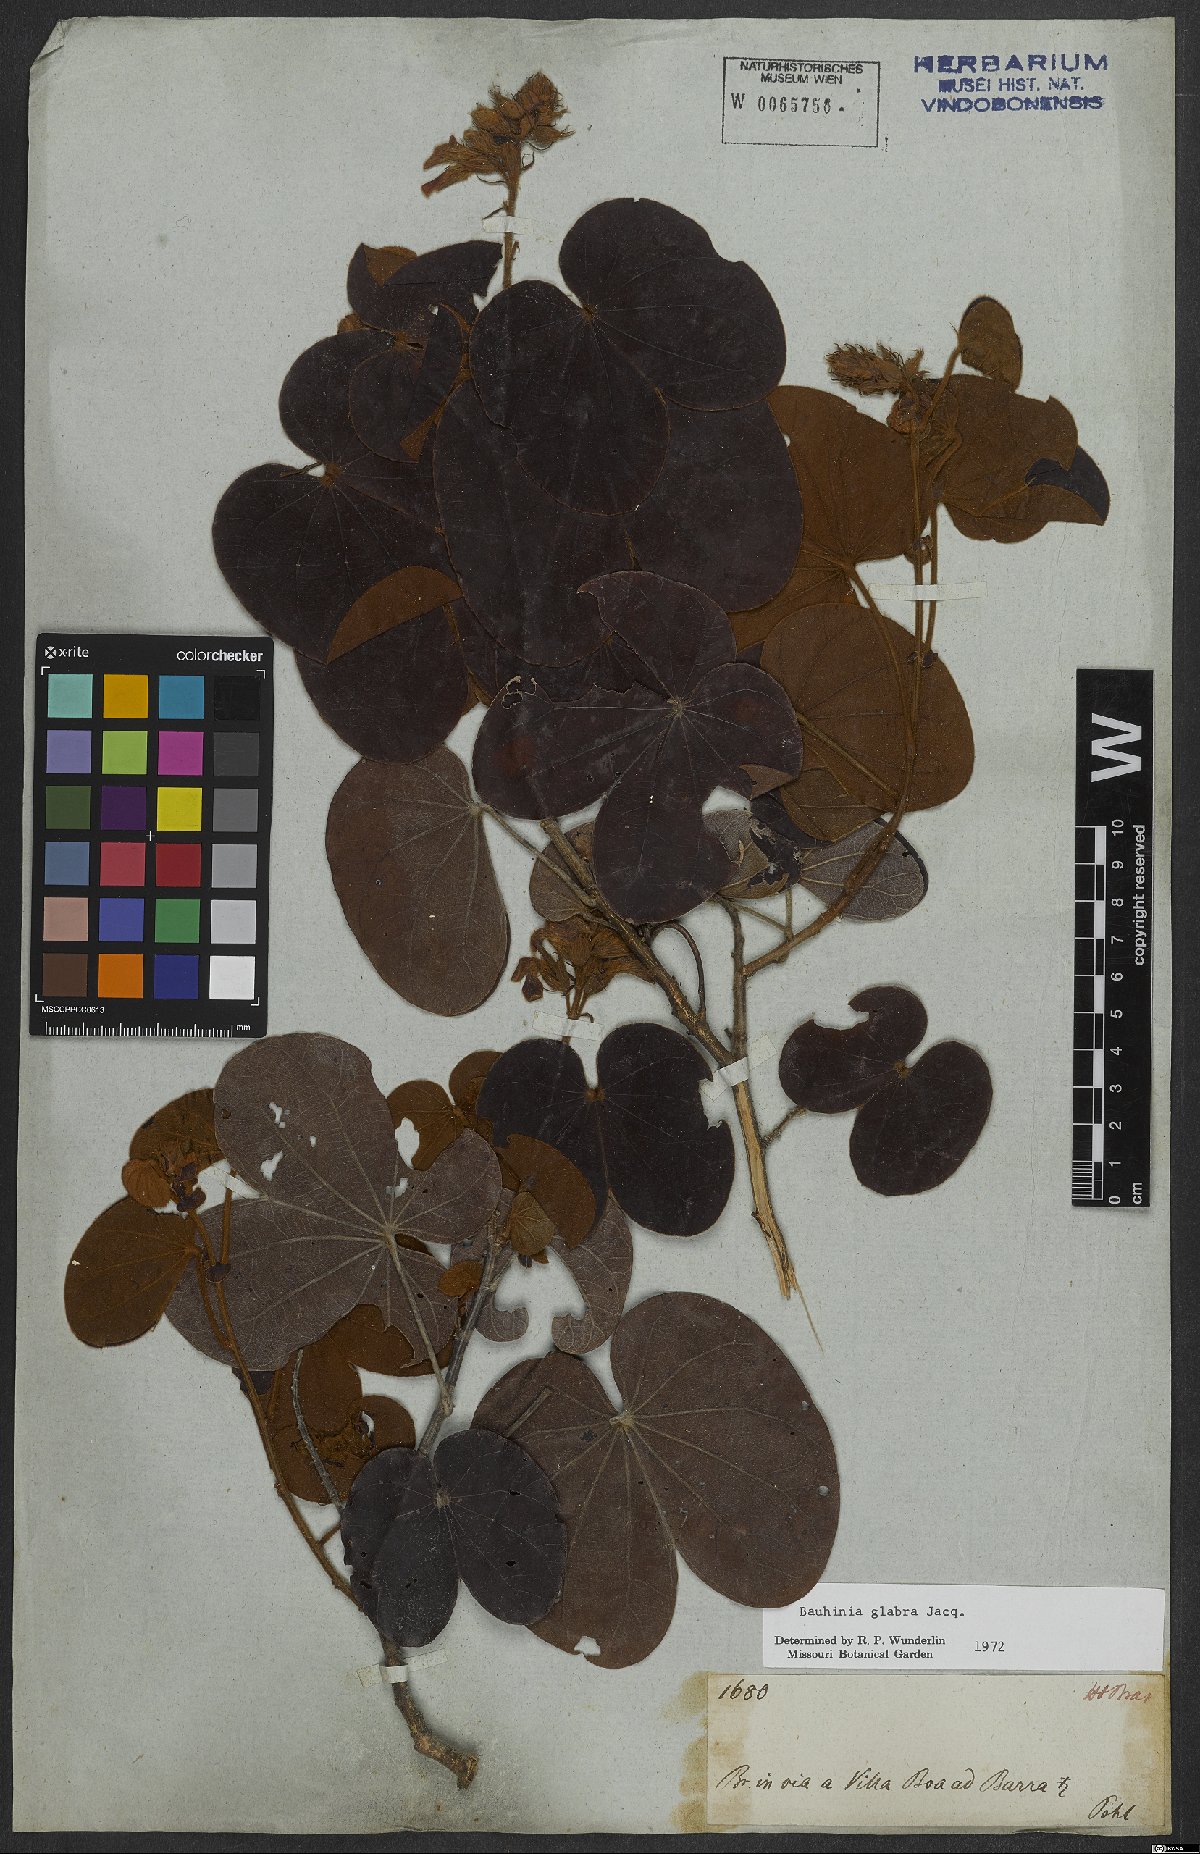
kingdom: Plantae
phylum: Tracheophyta
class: Magnoliopsida
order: Fabales
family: Fabaceae
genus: Schnella
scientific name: Schnella glabra
